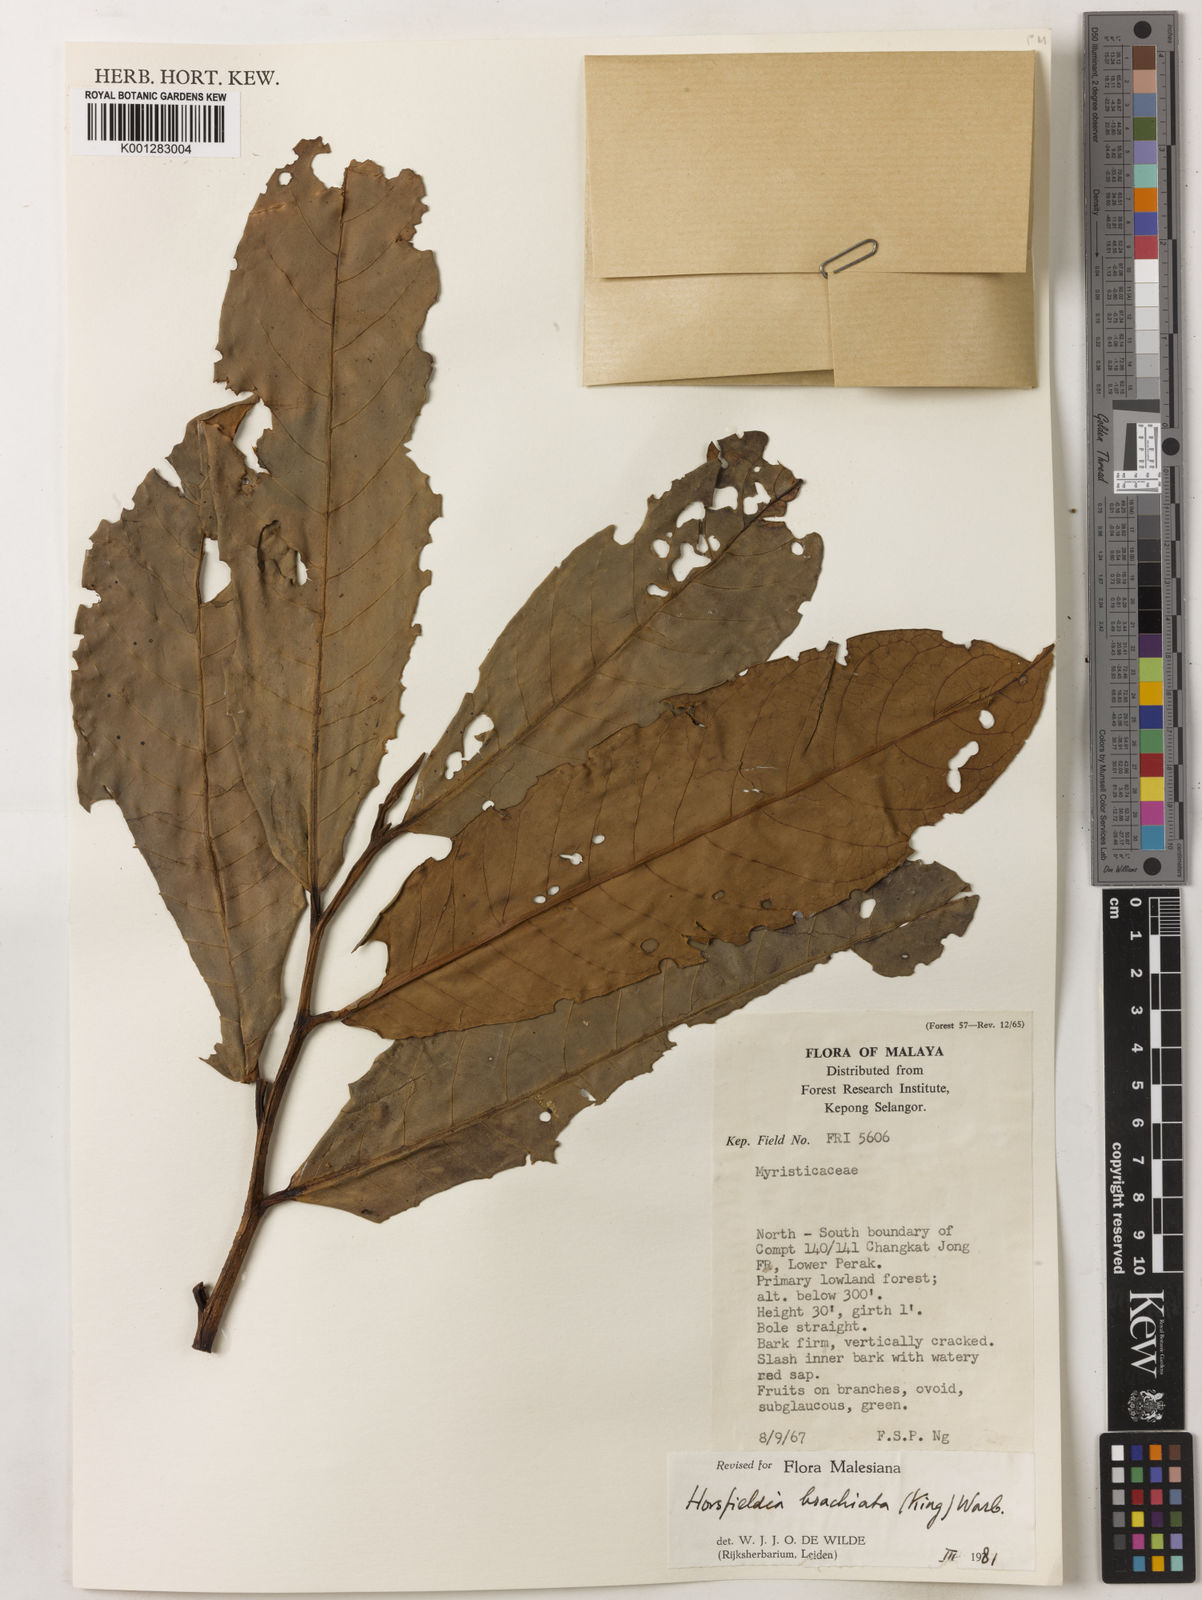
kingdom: Plantae
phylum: Tracheophyta
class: Magnoliopsida
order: Magnoliales
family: Myristicaceae
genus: Horsfieldia
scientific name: Horsfieldia brachiata
